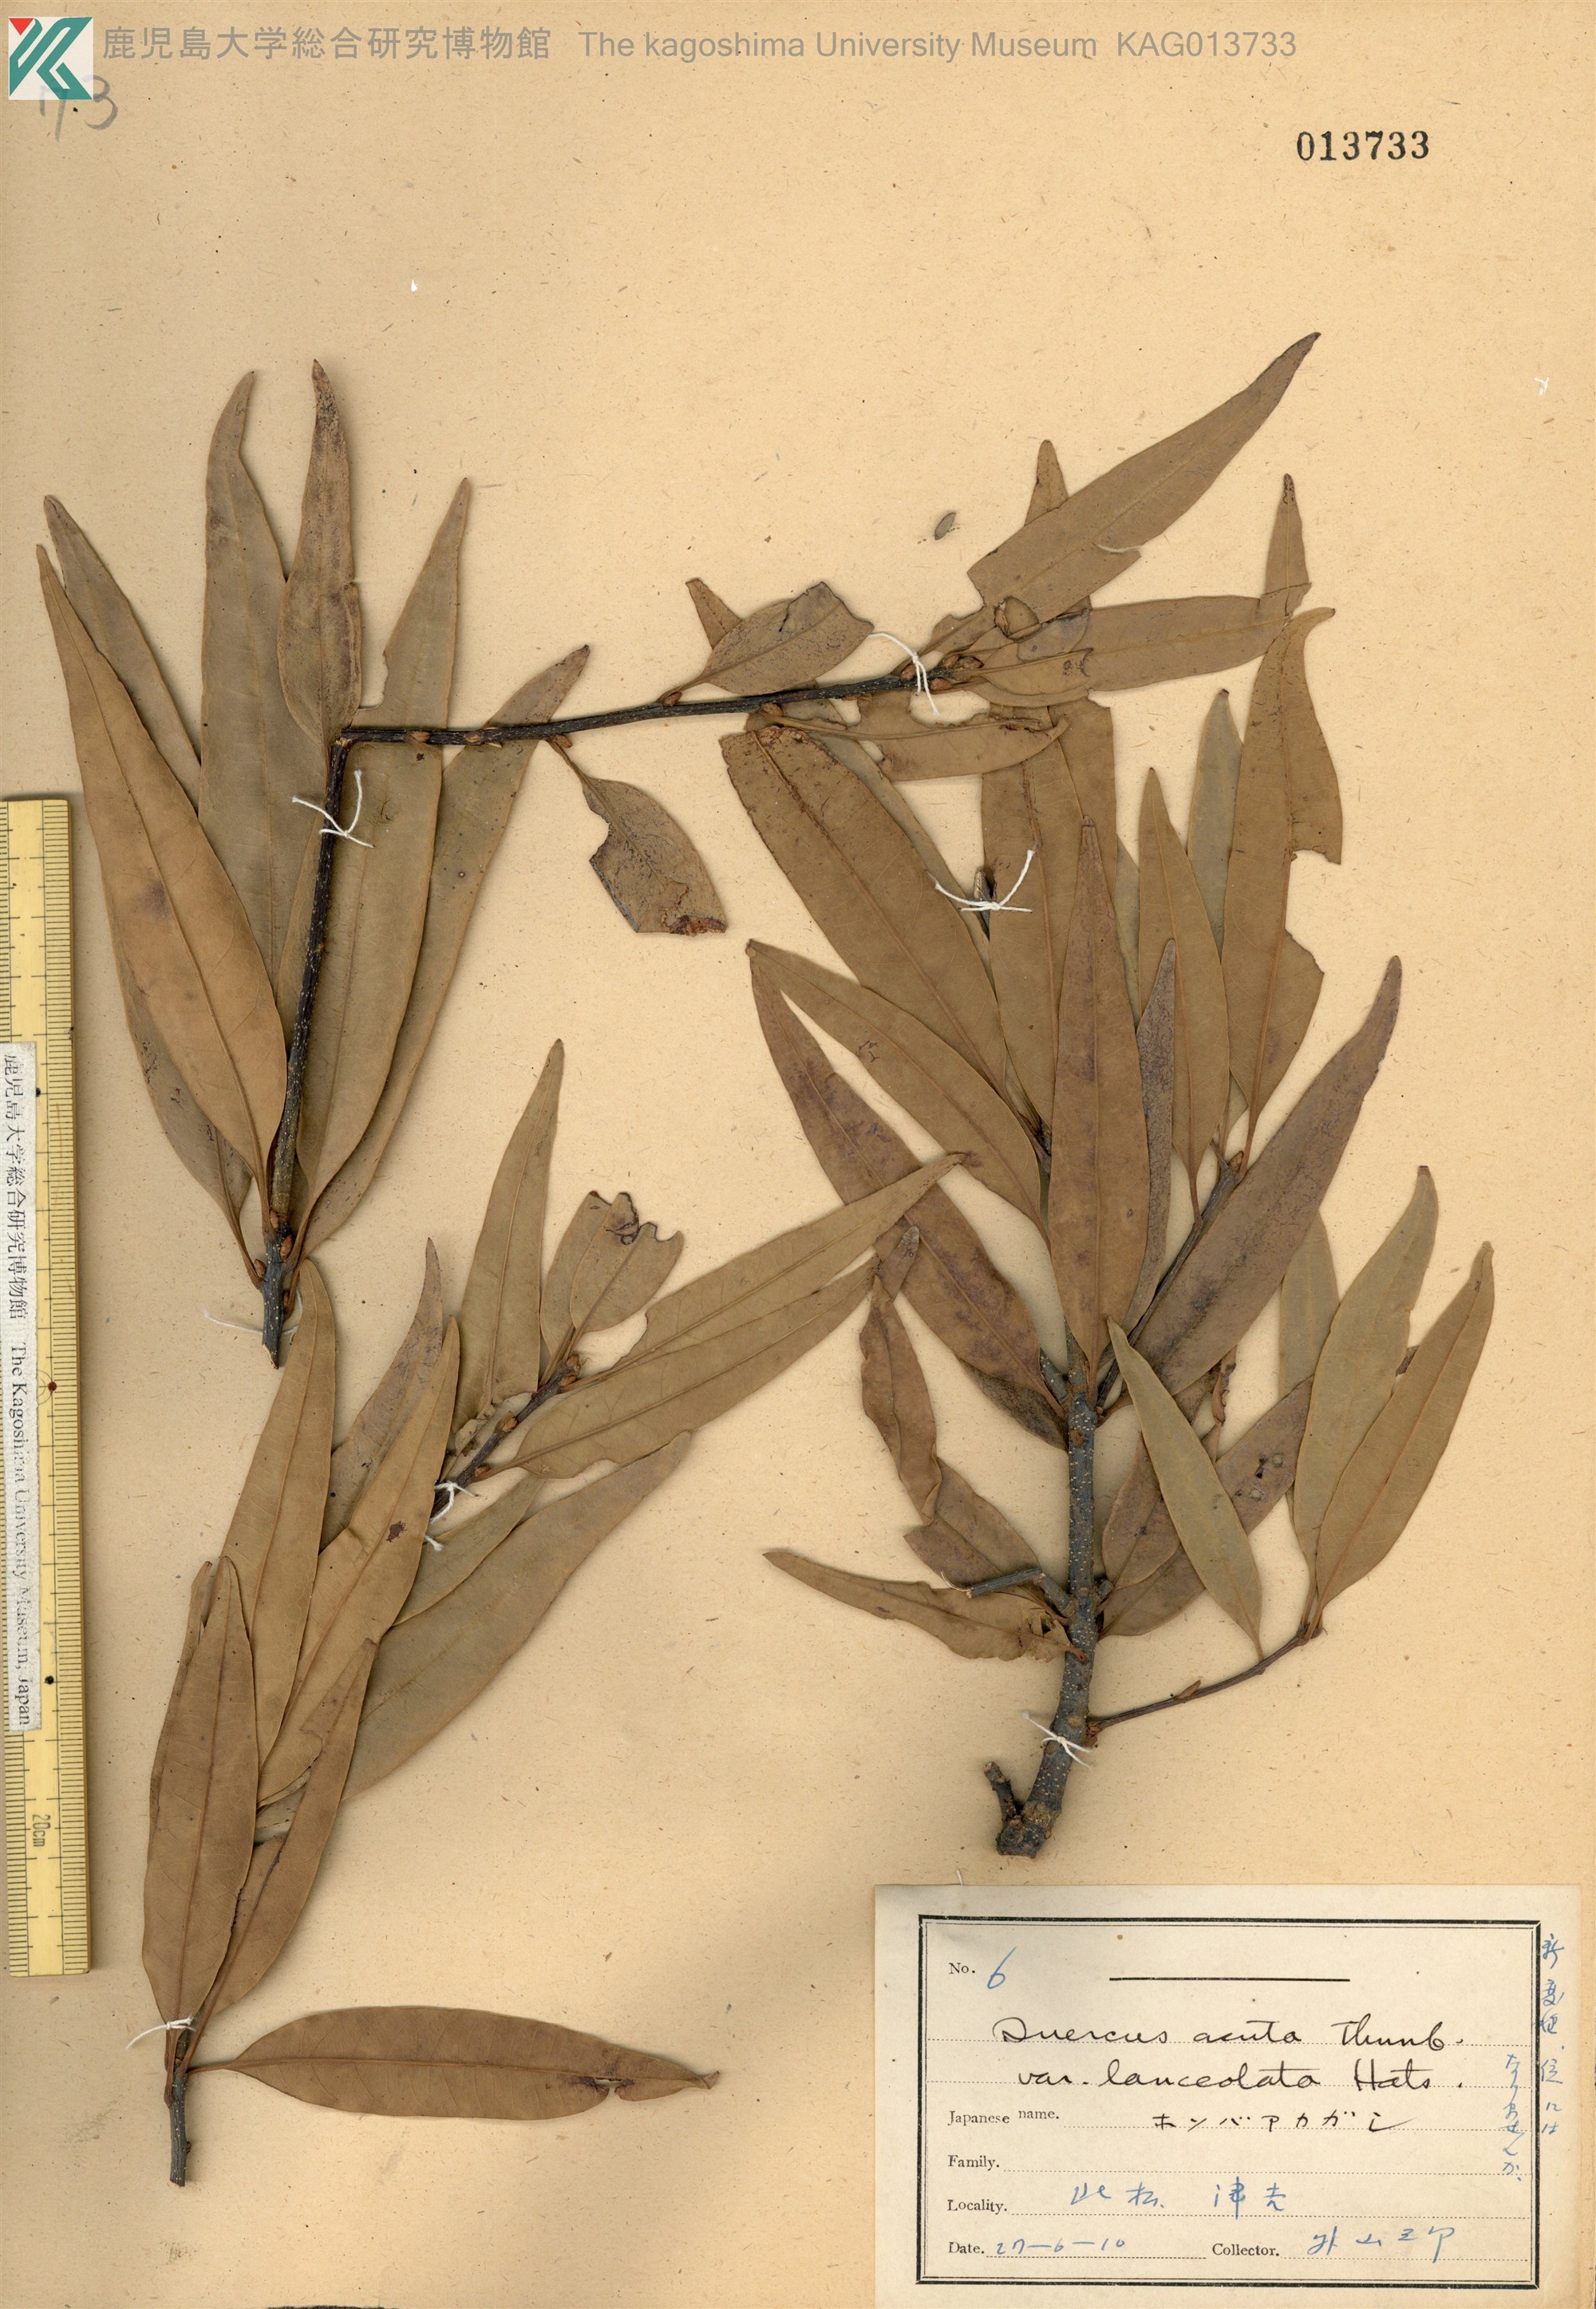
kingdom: Plantae
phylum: Tracheophyta
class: Magnoliopsida
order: Fagales
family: Fagaceae
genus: Quercus
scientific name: Quercus acuta
